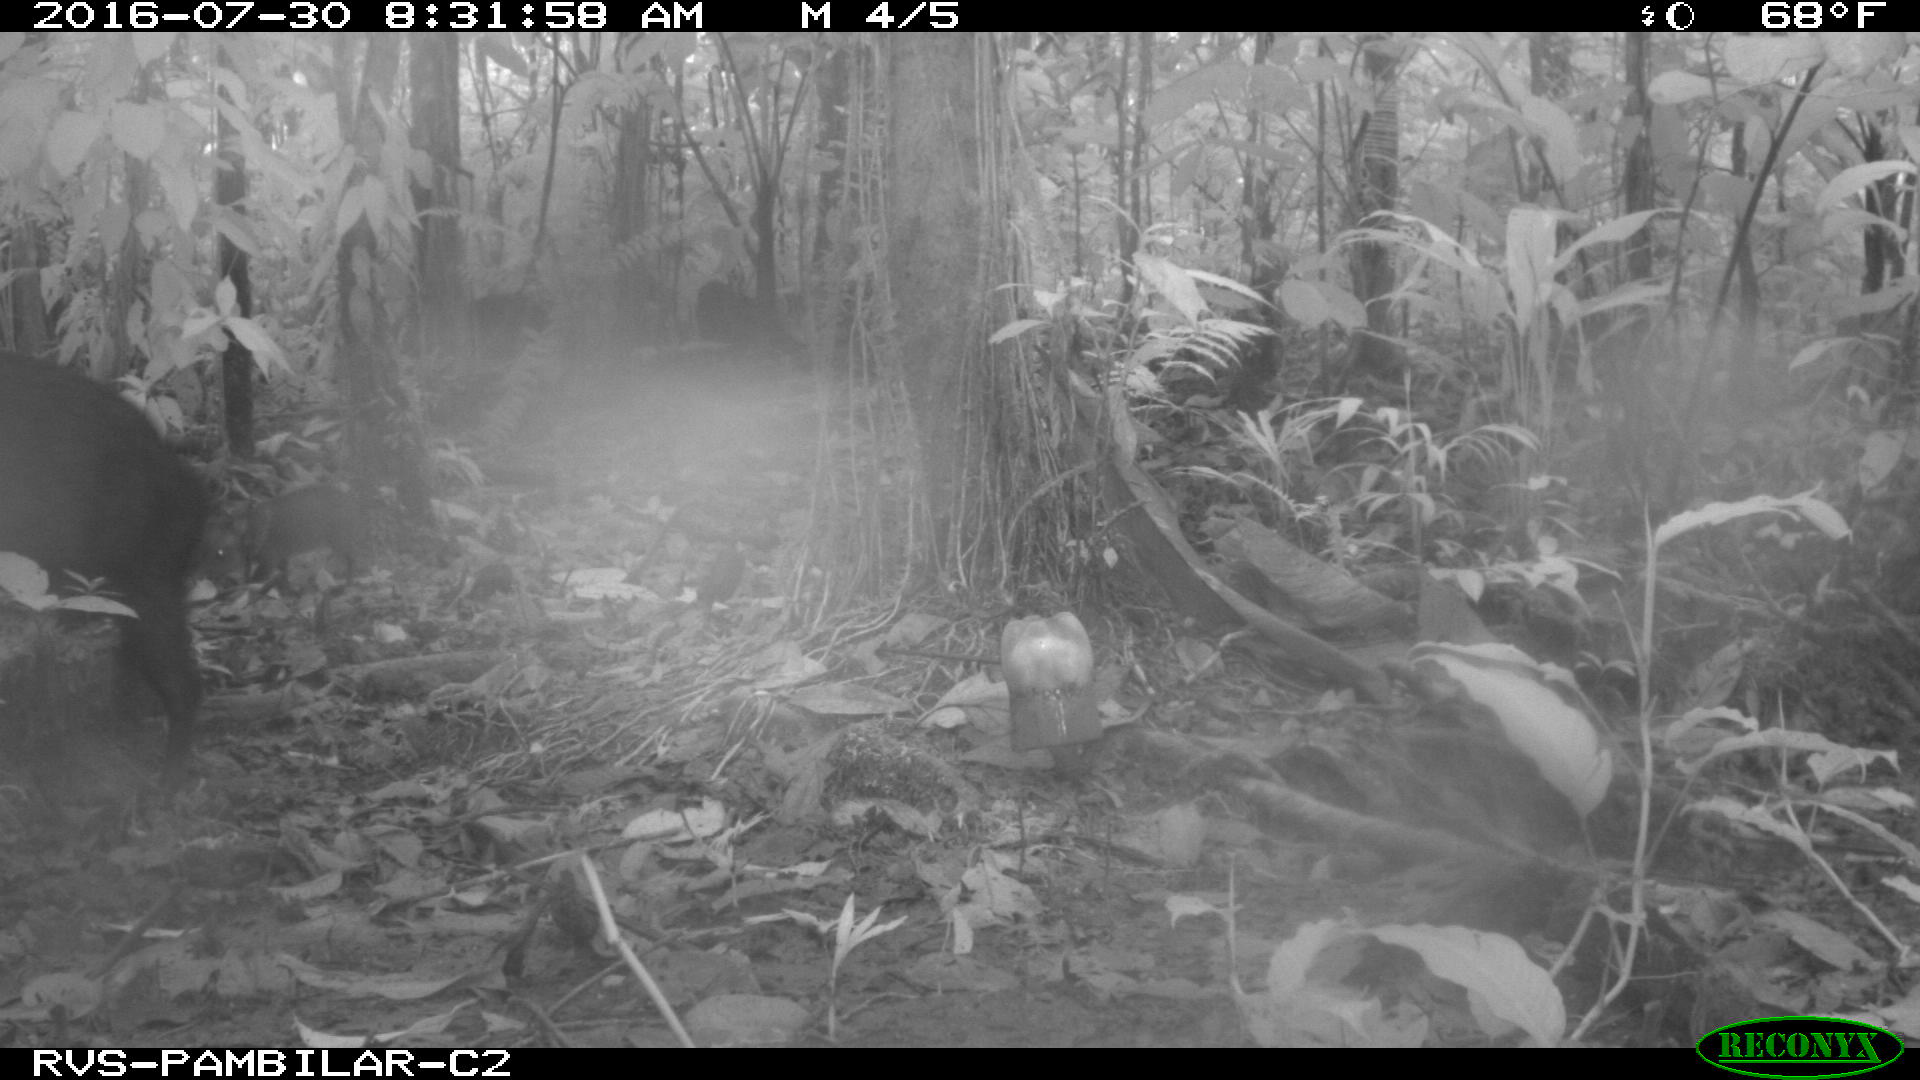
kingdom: Animalia
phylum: Chordata
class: Mammalia
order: Artiodactyla
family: Tayassuidae
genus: Pecari
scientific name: Pecari tajacu
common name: Collared peccary
